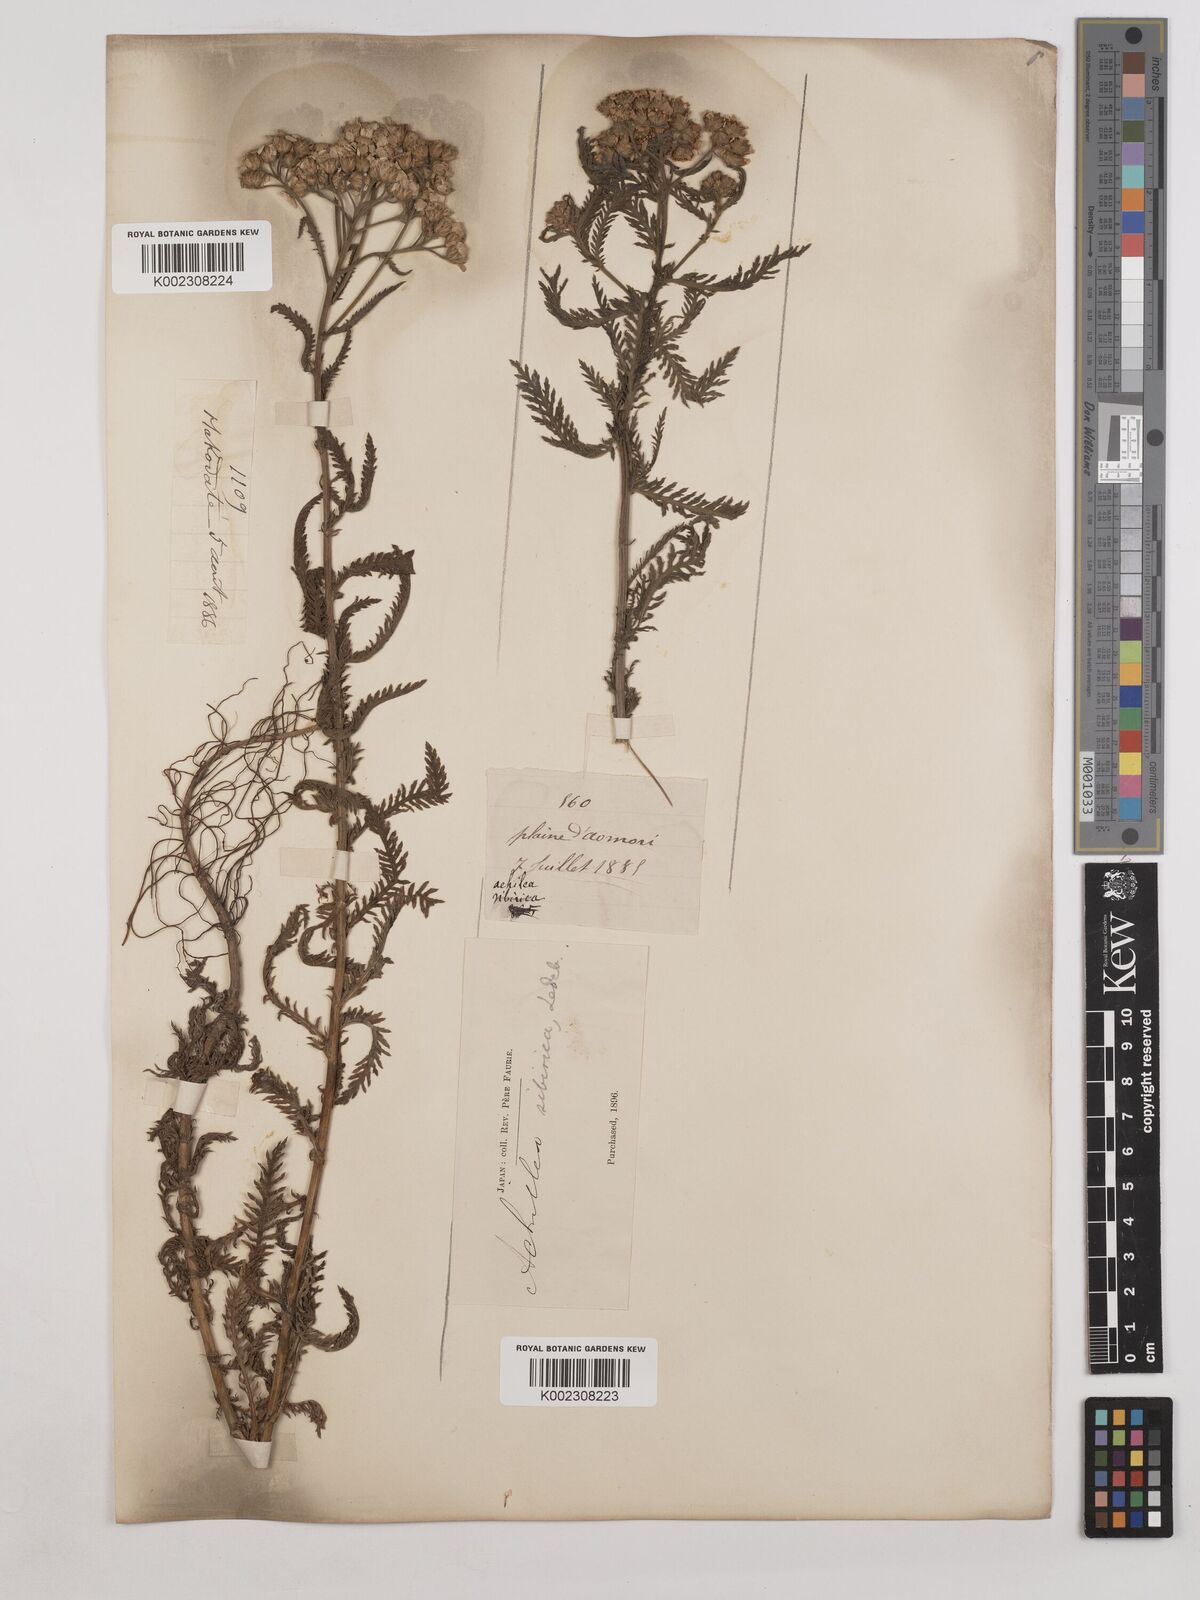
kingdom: Plantae
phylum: Tracheophyta
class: Magnoliopsida
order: Asterales
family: Asteraceae
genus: Achillea
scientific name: Achillea alpina
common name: Siberian yarrow
